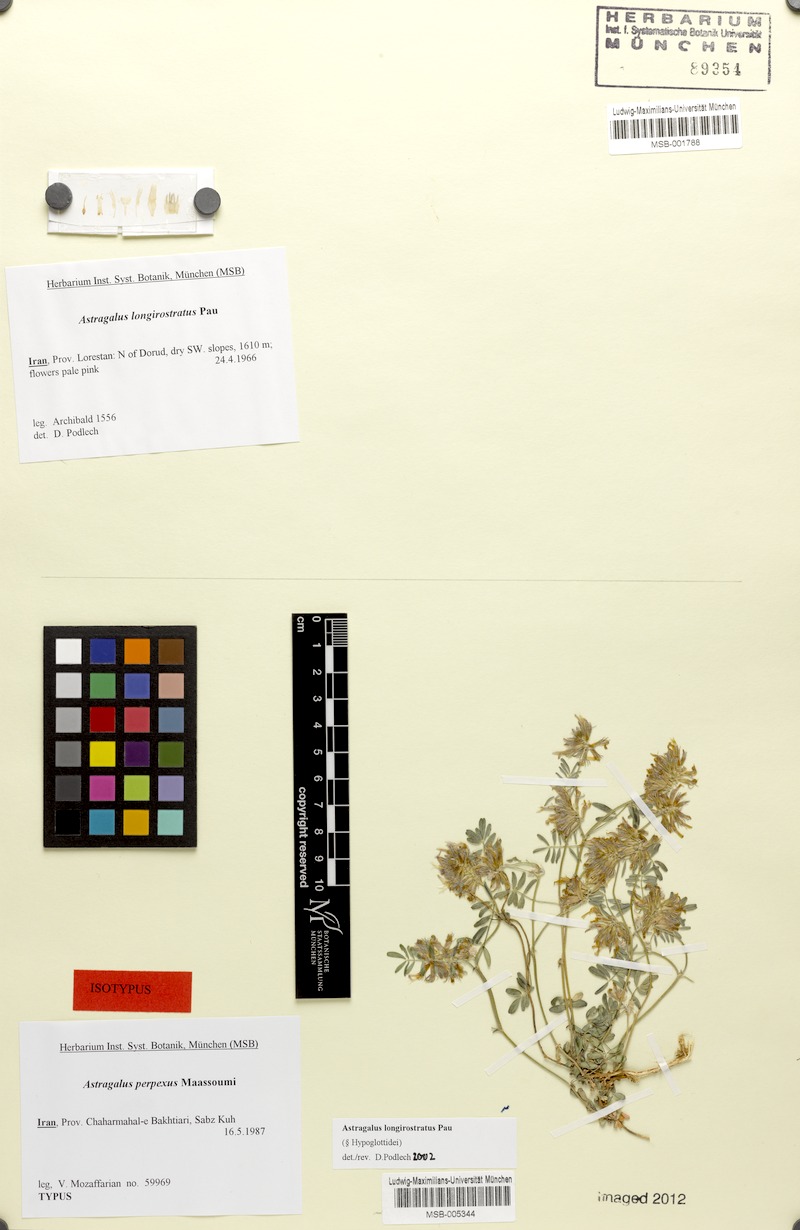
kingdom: Plantae
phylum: Tracheophyta
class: Magnoliopsida
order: Fabales
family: Fabaceae
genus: Astragalus
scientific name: Astragalus longirostratus
